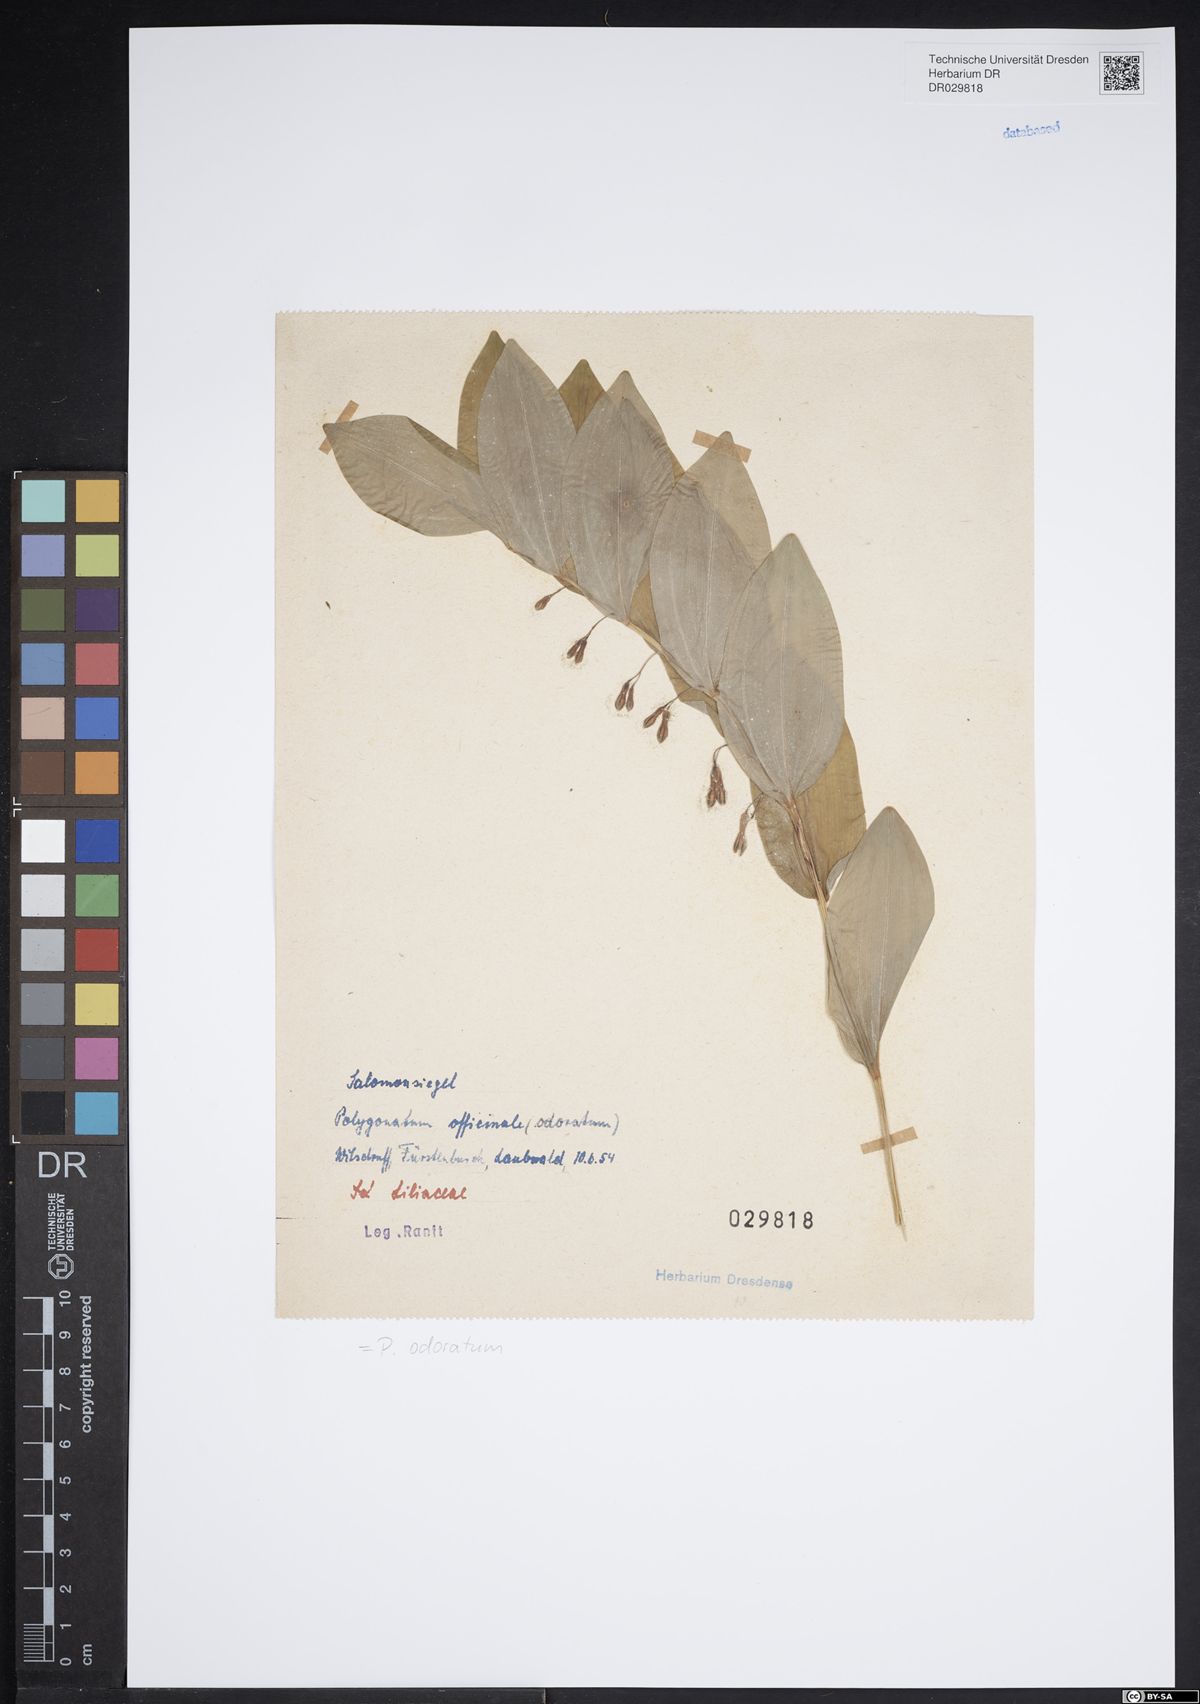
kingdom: Plantae
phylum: Tracheophyta
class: Liliopsida
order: Asparagales
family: Asparagaceae
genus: Polygonatum
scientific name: Polygonatum odoratum
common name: Angular solomon's-seal
